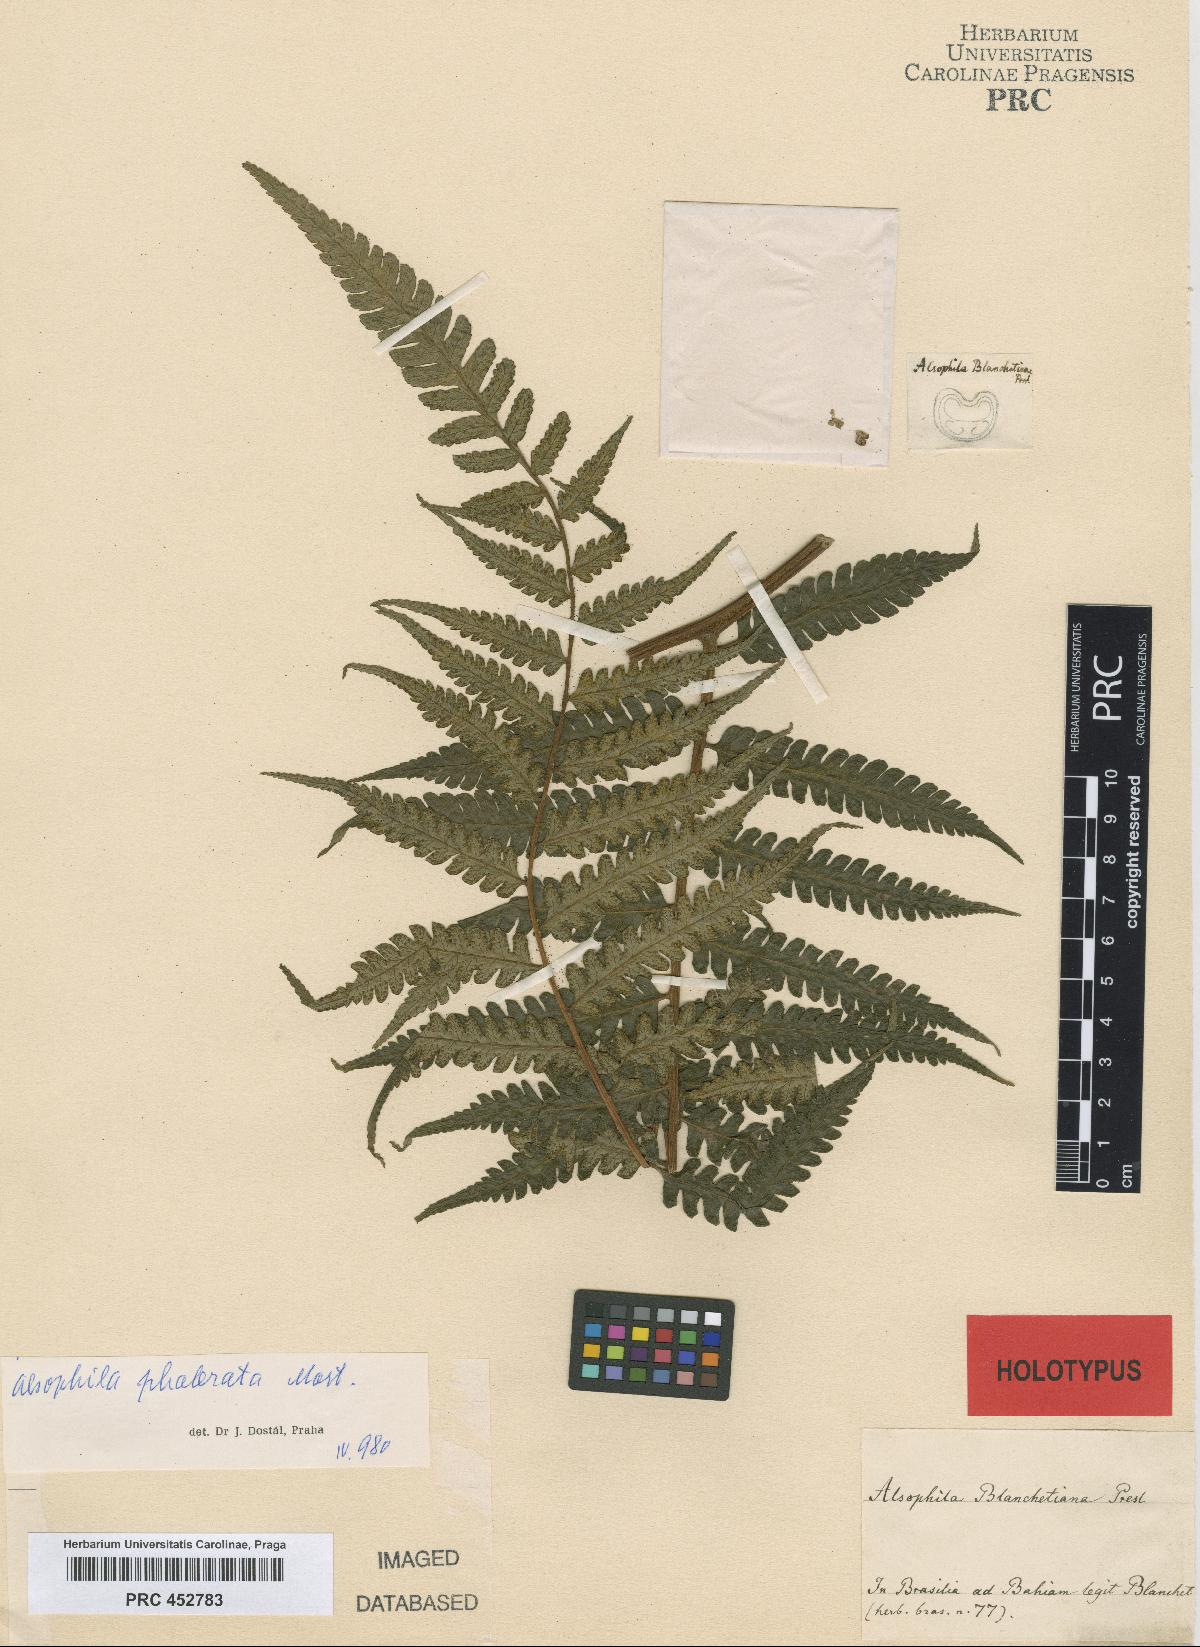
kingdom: Plantae
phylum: Tracheophyta
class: Polypodiopsida
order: Cyatheales
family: Cyatheaceae
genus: Cyathea
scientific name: Cyathea phalerata
